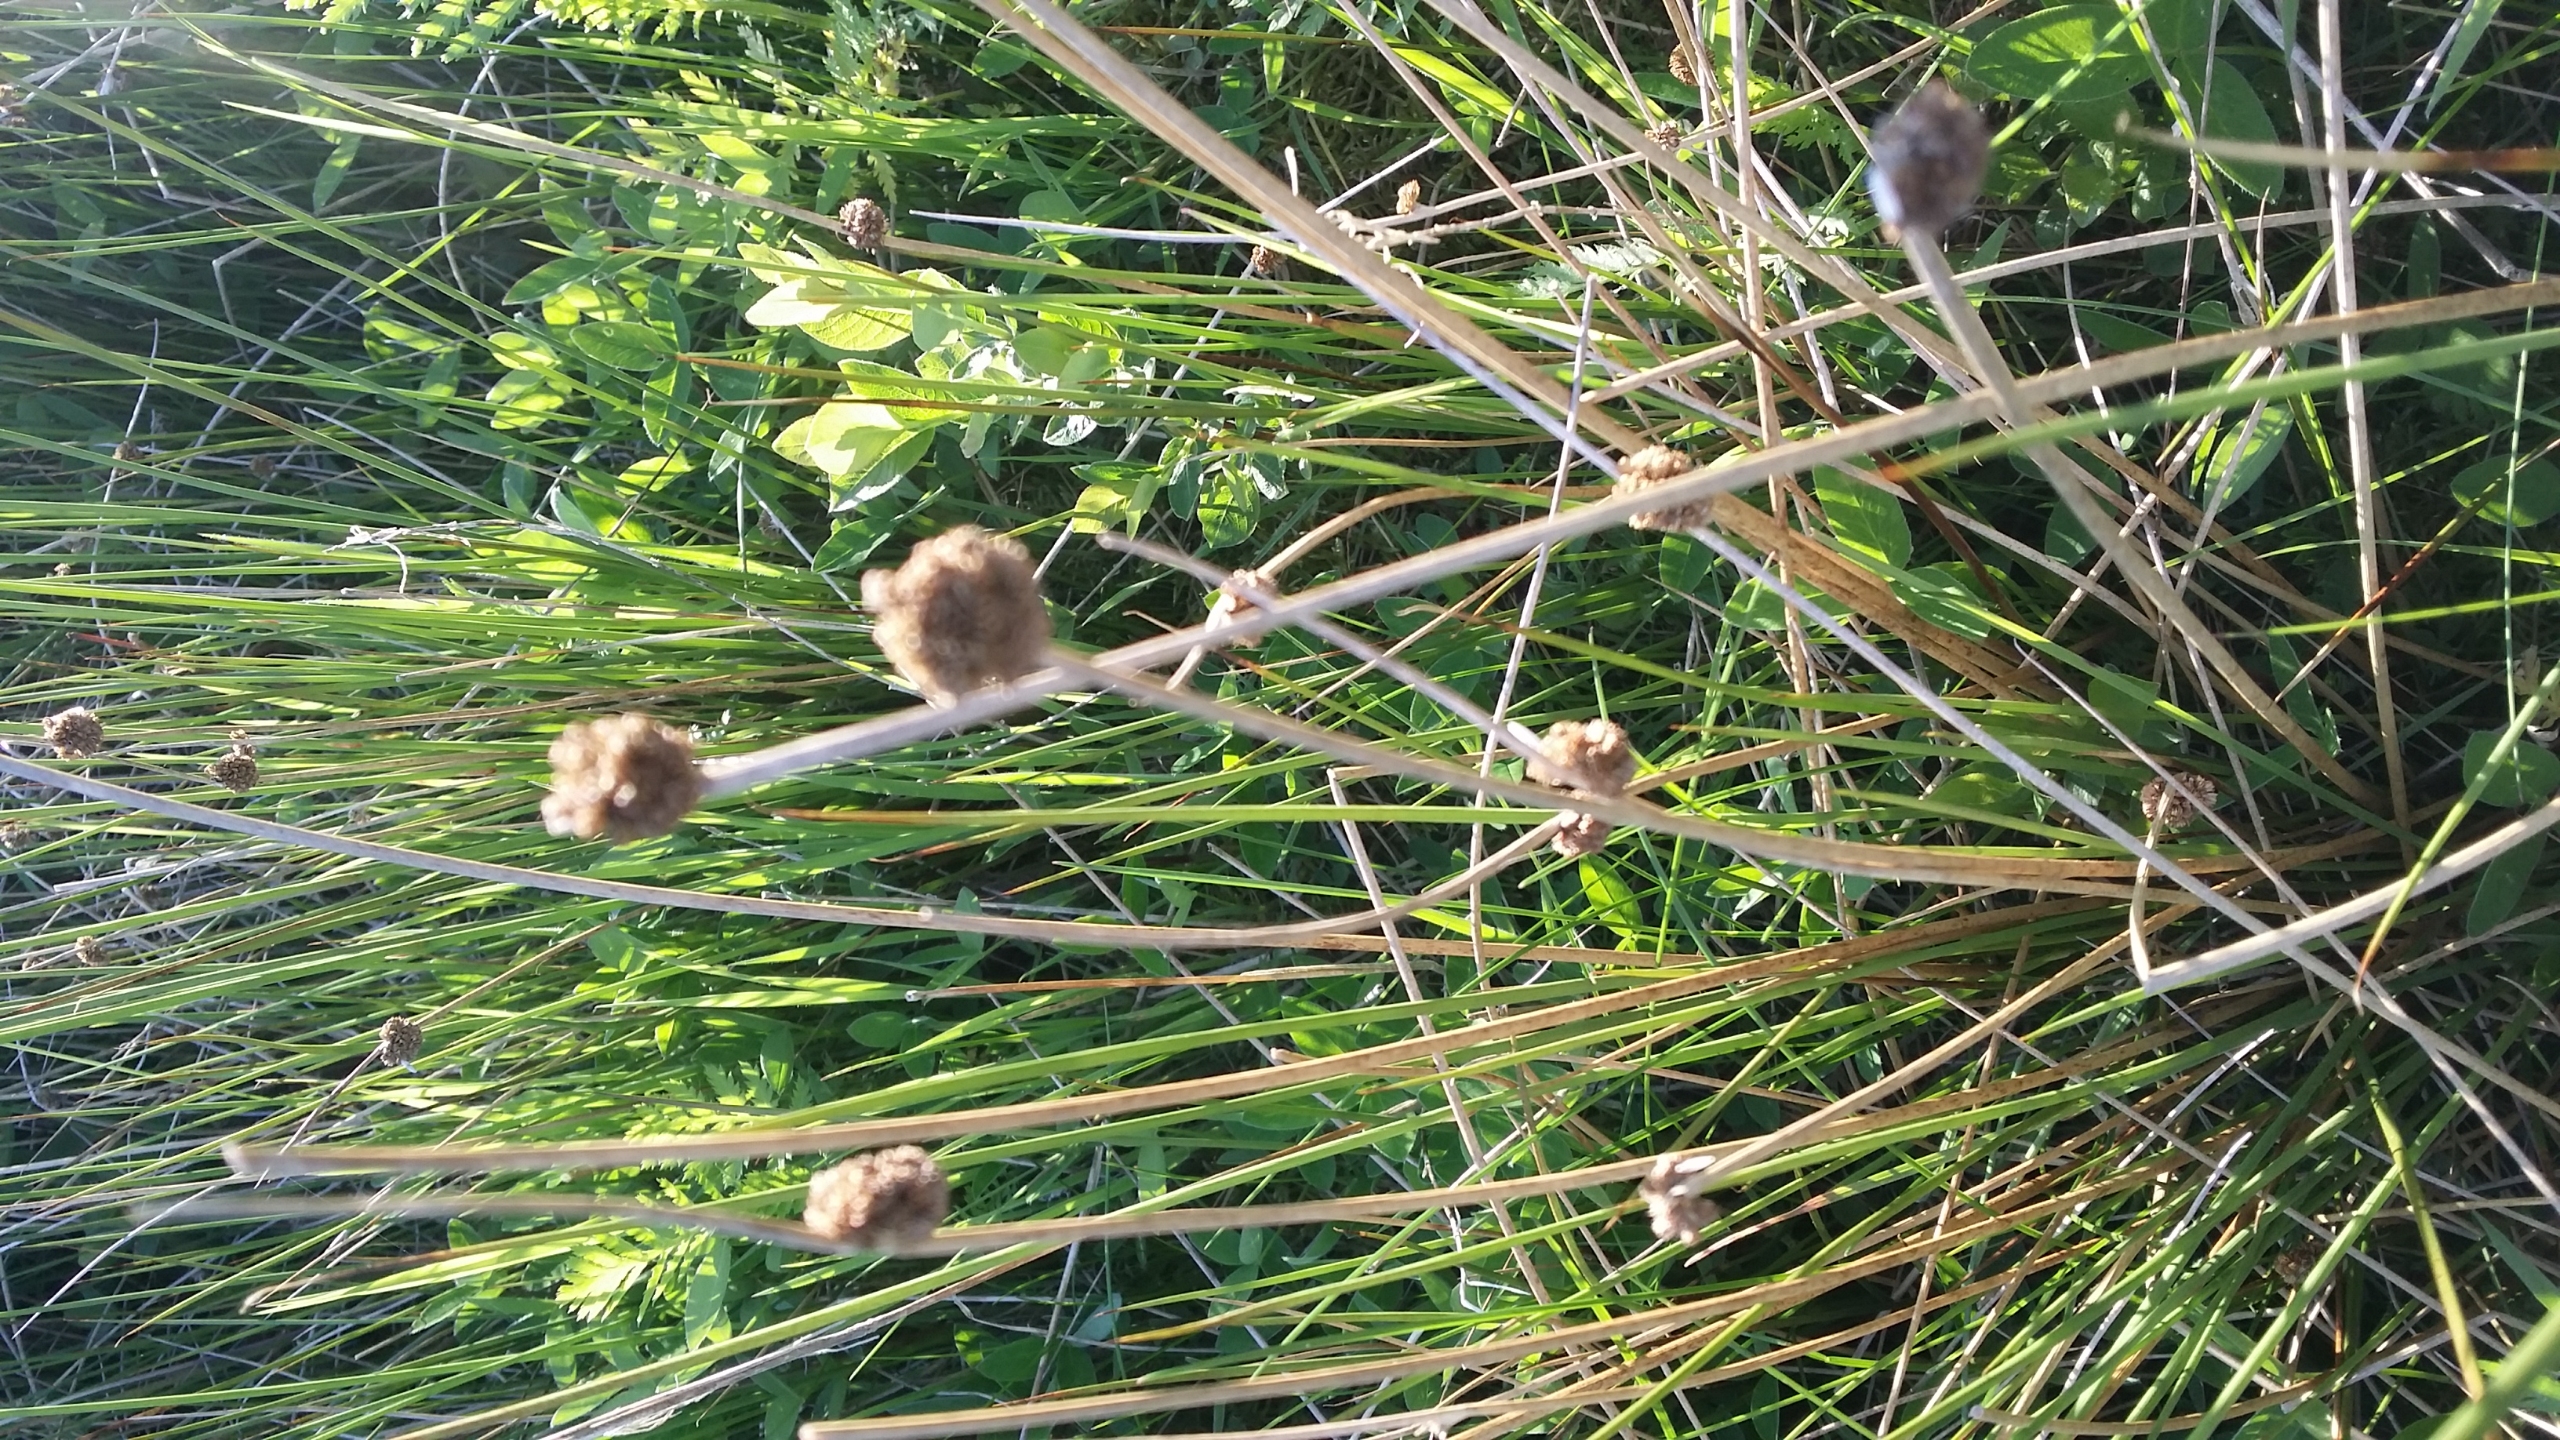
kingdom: Plantae
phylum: Tracheophyta
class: Liliopsida
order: Poales
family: Juncaceae
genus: Juncus
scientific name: Juncus conglomeratus
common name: Knop-siv
